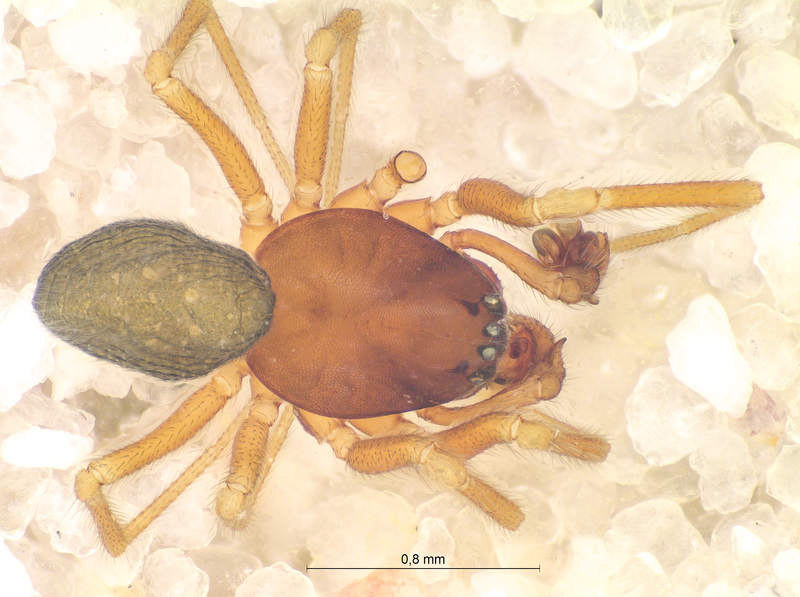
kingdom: Animalia
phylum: Arthropoda
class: Arachnida
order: Araneae
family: Linyphiidae
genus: Micrargus
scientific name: Micrargus herbigradus
